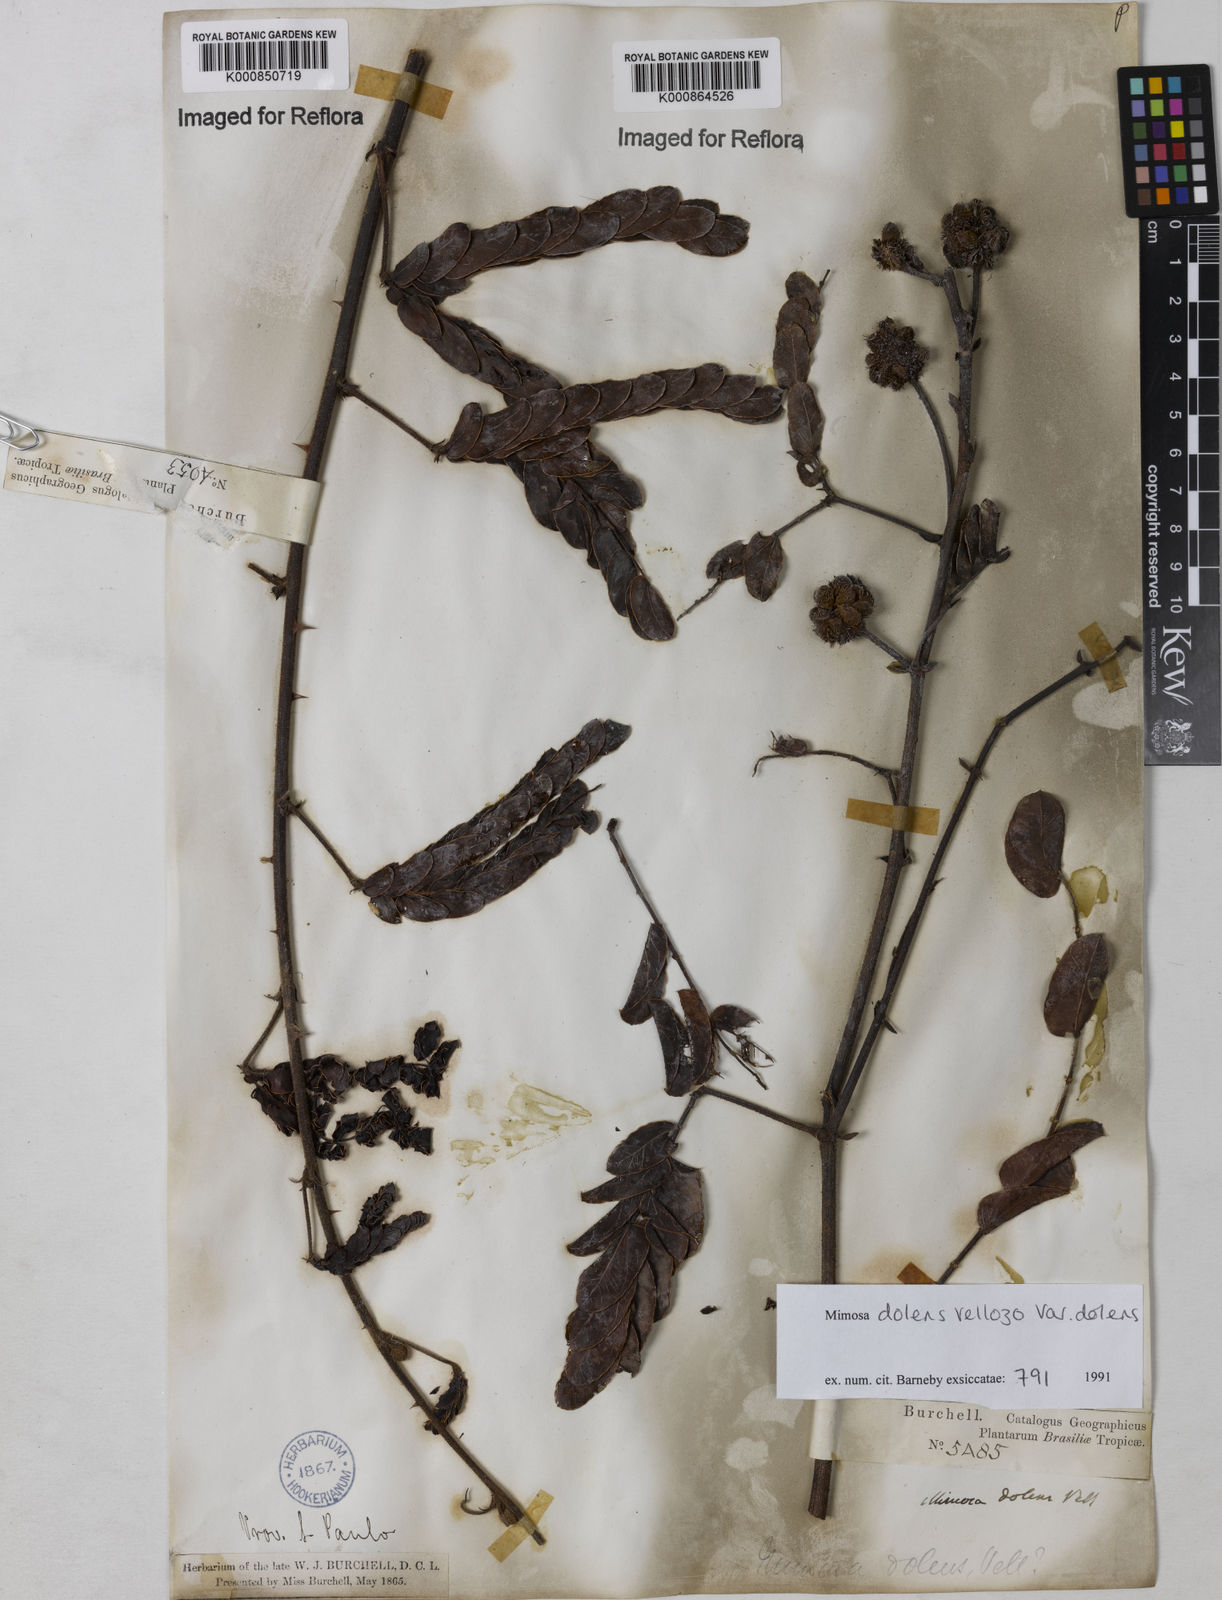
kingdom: Plantae
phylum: Tracheophyta
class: Magnoliopsida
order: Fabales
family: Fabaceae
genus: Mimosa
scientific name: Mimosa dolens
